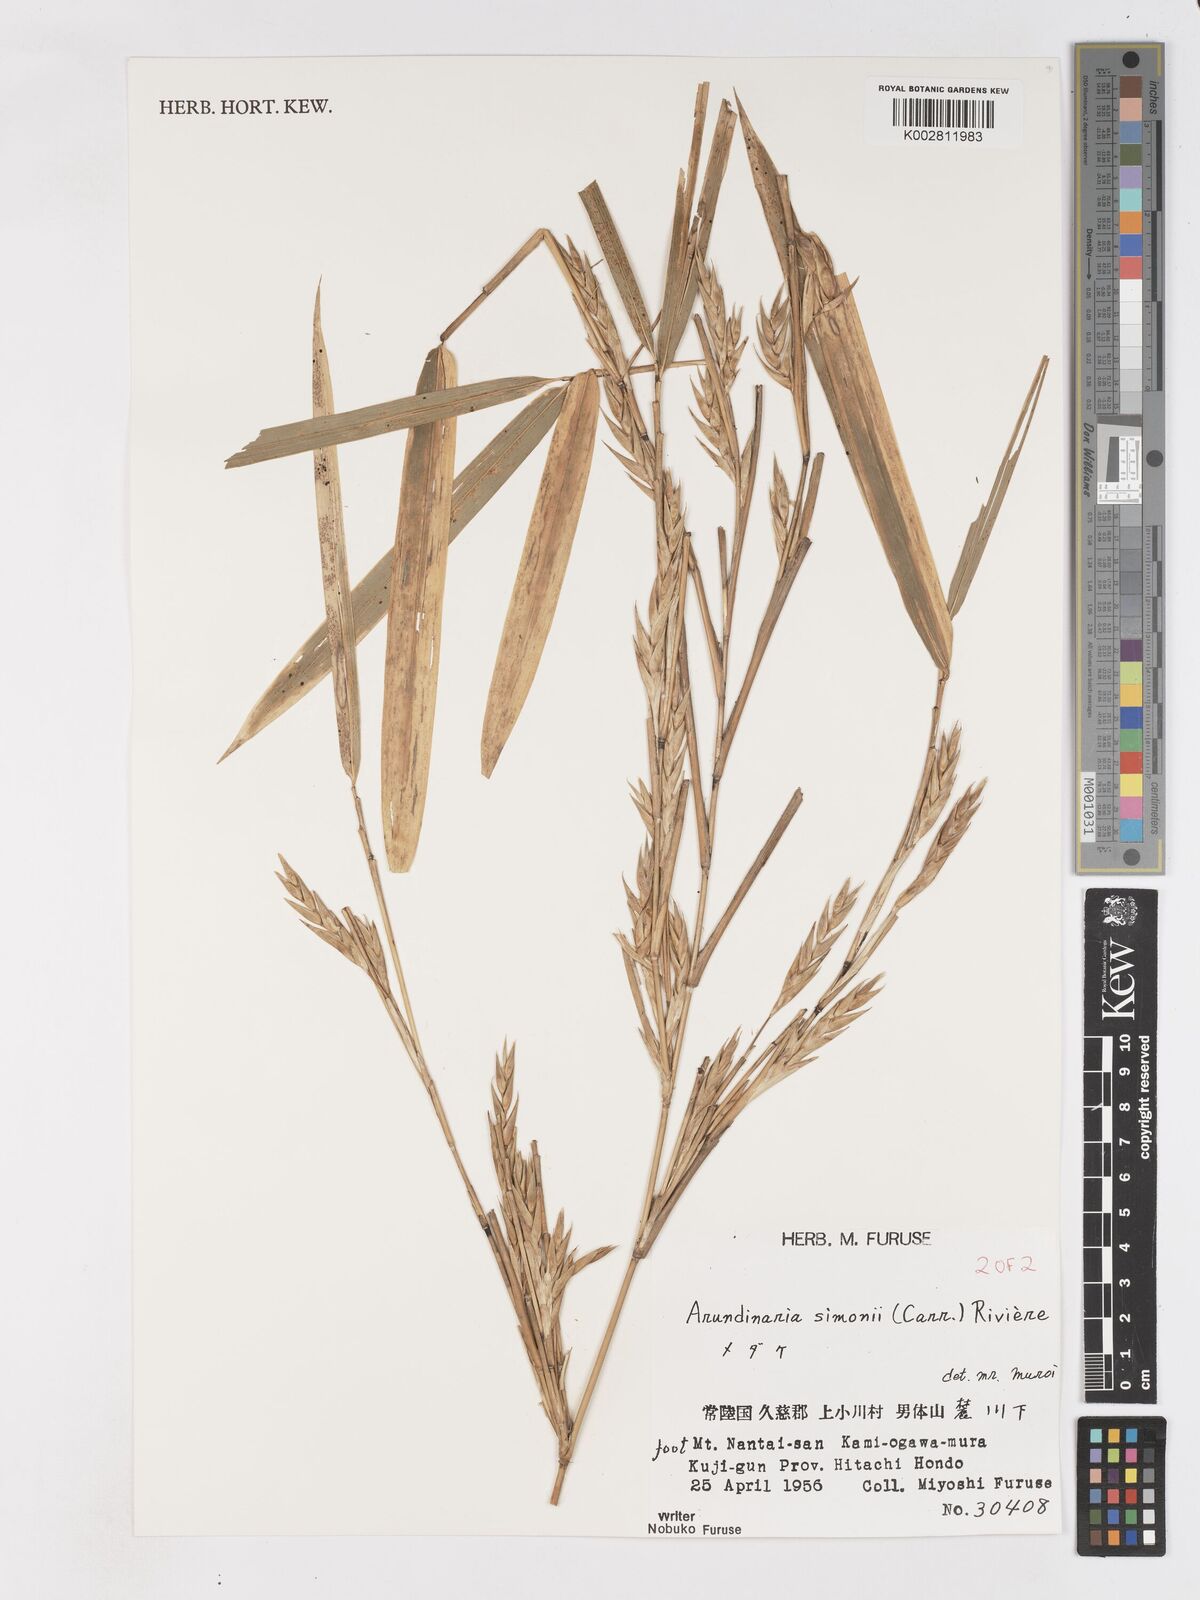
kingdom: Plantae
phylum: Tracheophyta
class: Liliopsida
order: Poales
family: Poaceae
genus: Pleioblastus
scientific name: Pleioblastus simonii
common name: Simon bamboo
